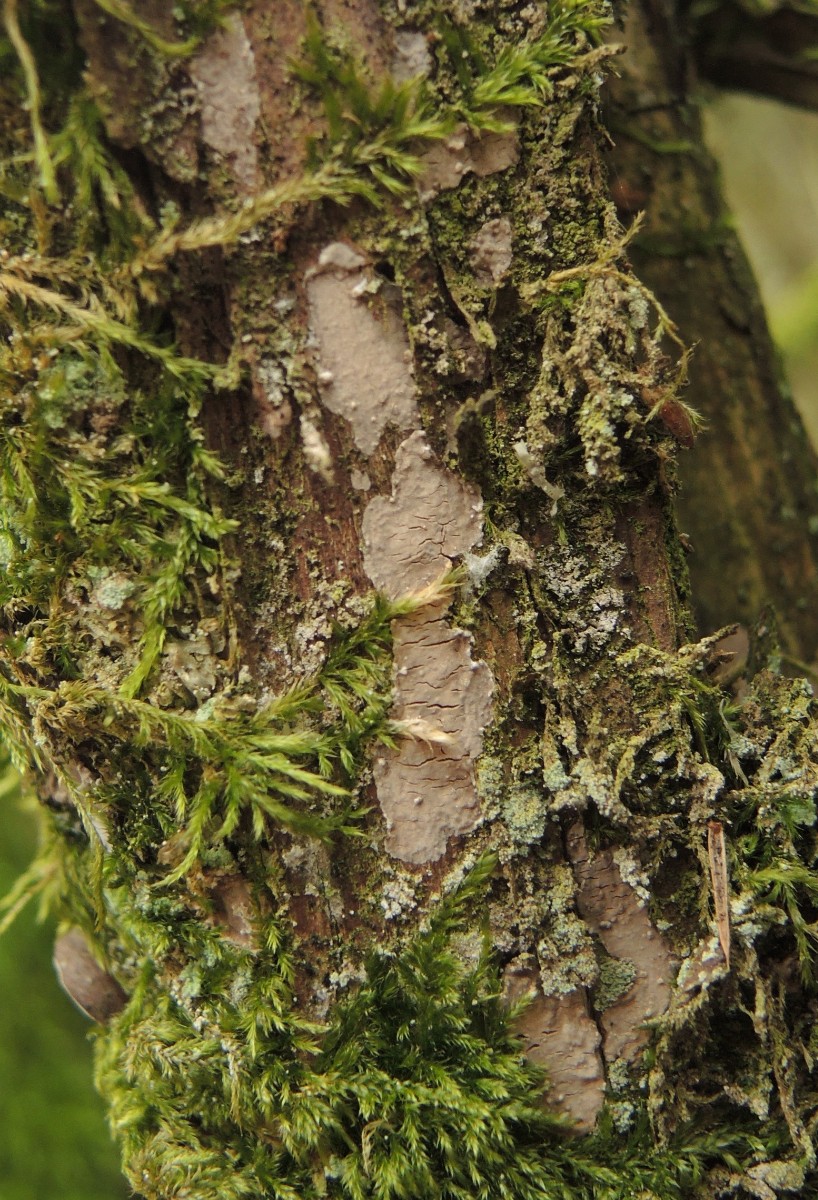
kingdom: Fungi
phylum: Basidiomycota
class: Agaricomycetes
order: Russulales
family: Echinodontiaceae
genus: Amylostereum
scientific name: Amylostereum laevigatum
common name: ene-lædersvamp
